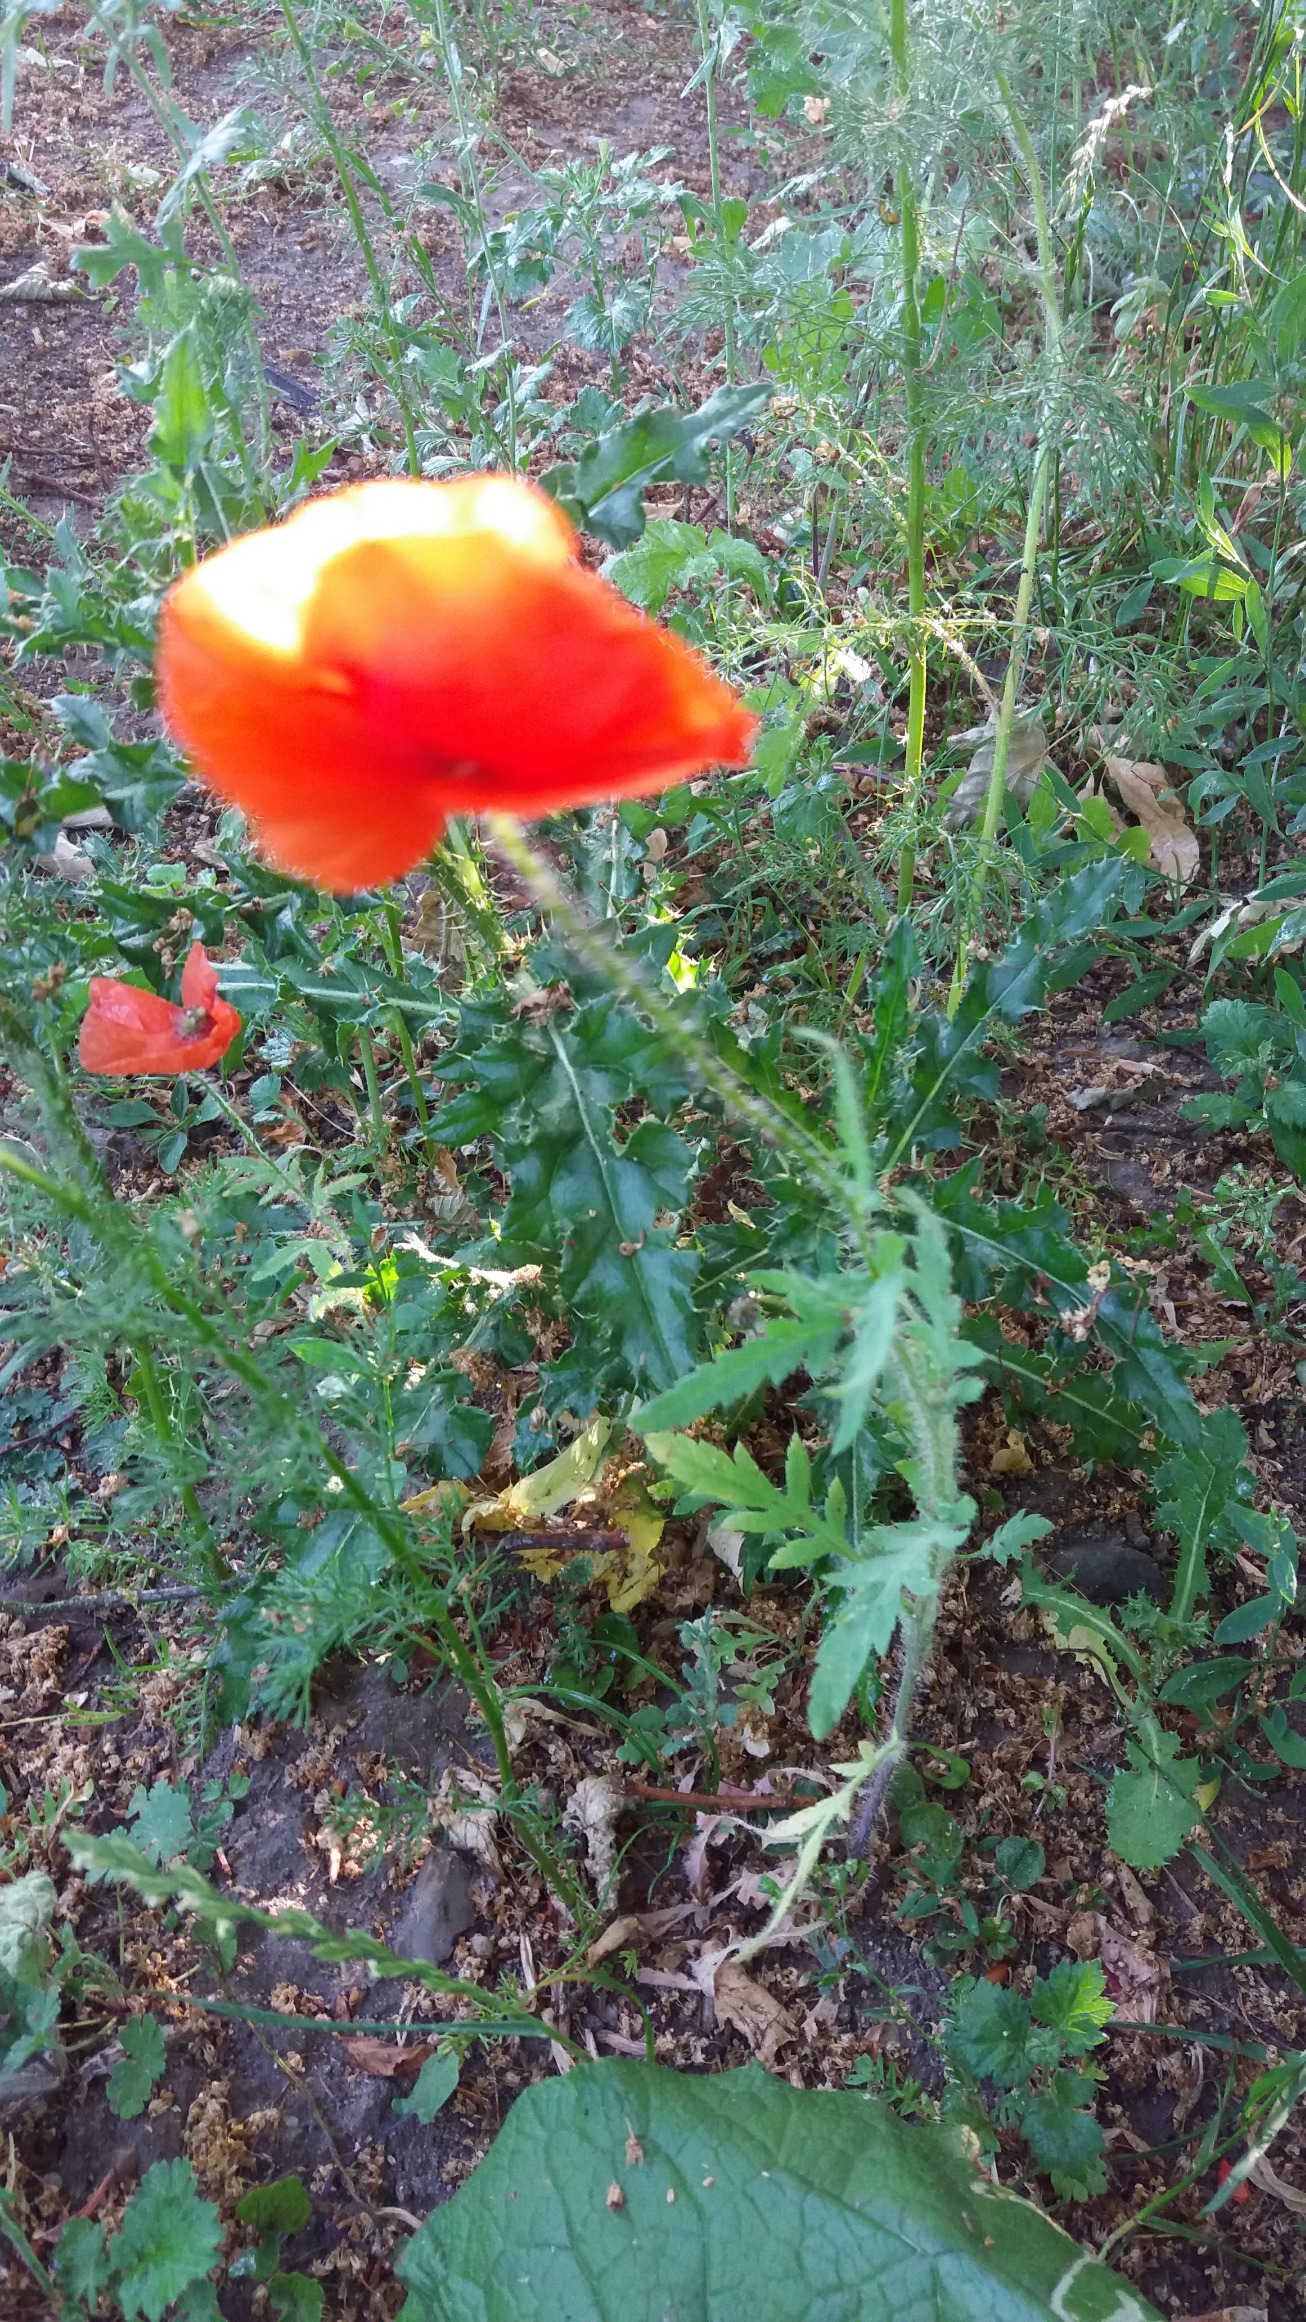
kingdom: Plantae
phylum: Tracheophyta
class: Magnoliopsida
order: Ranunculales
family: Papaveraceae
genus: Papaver
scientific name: Papaver rhoeas
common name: Korn-valmue
